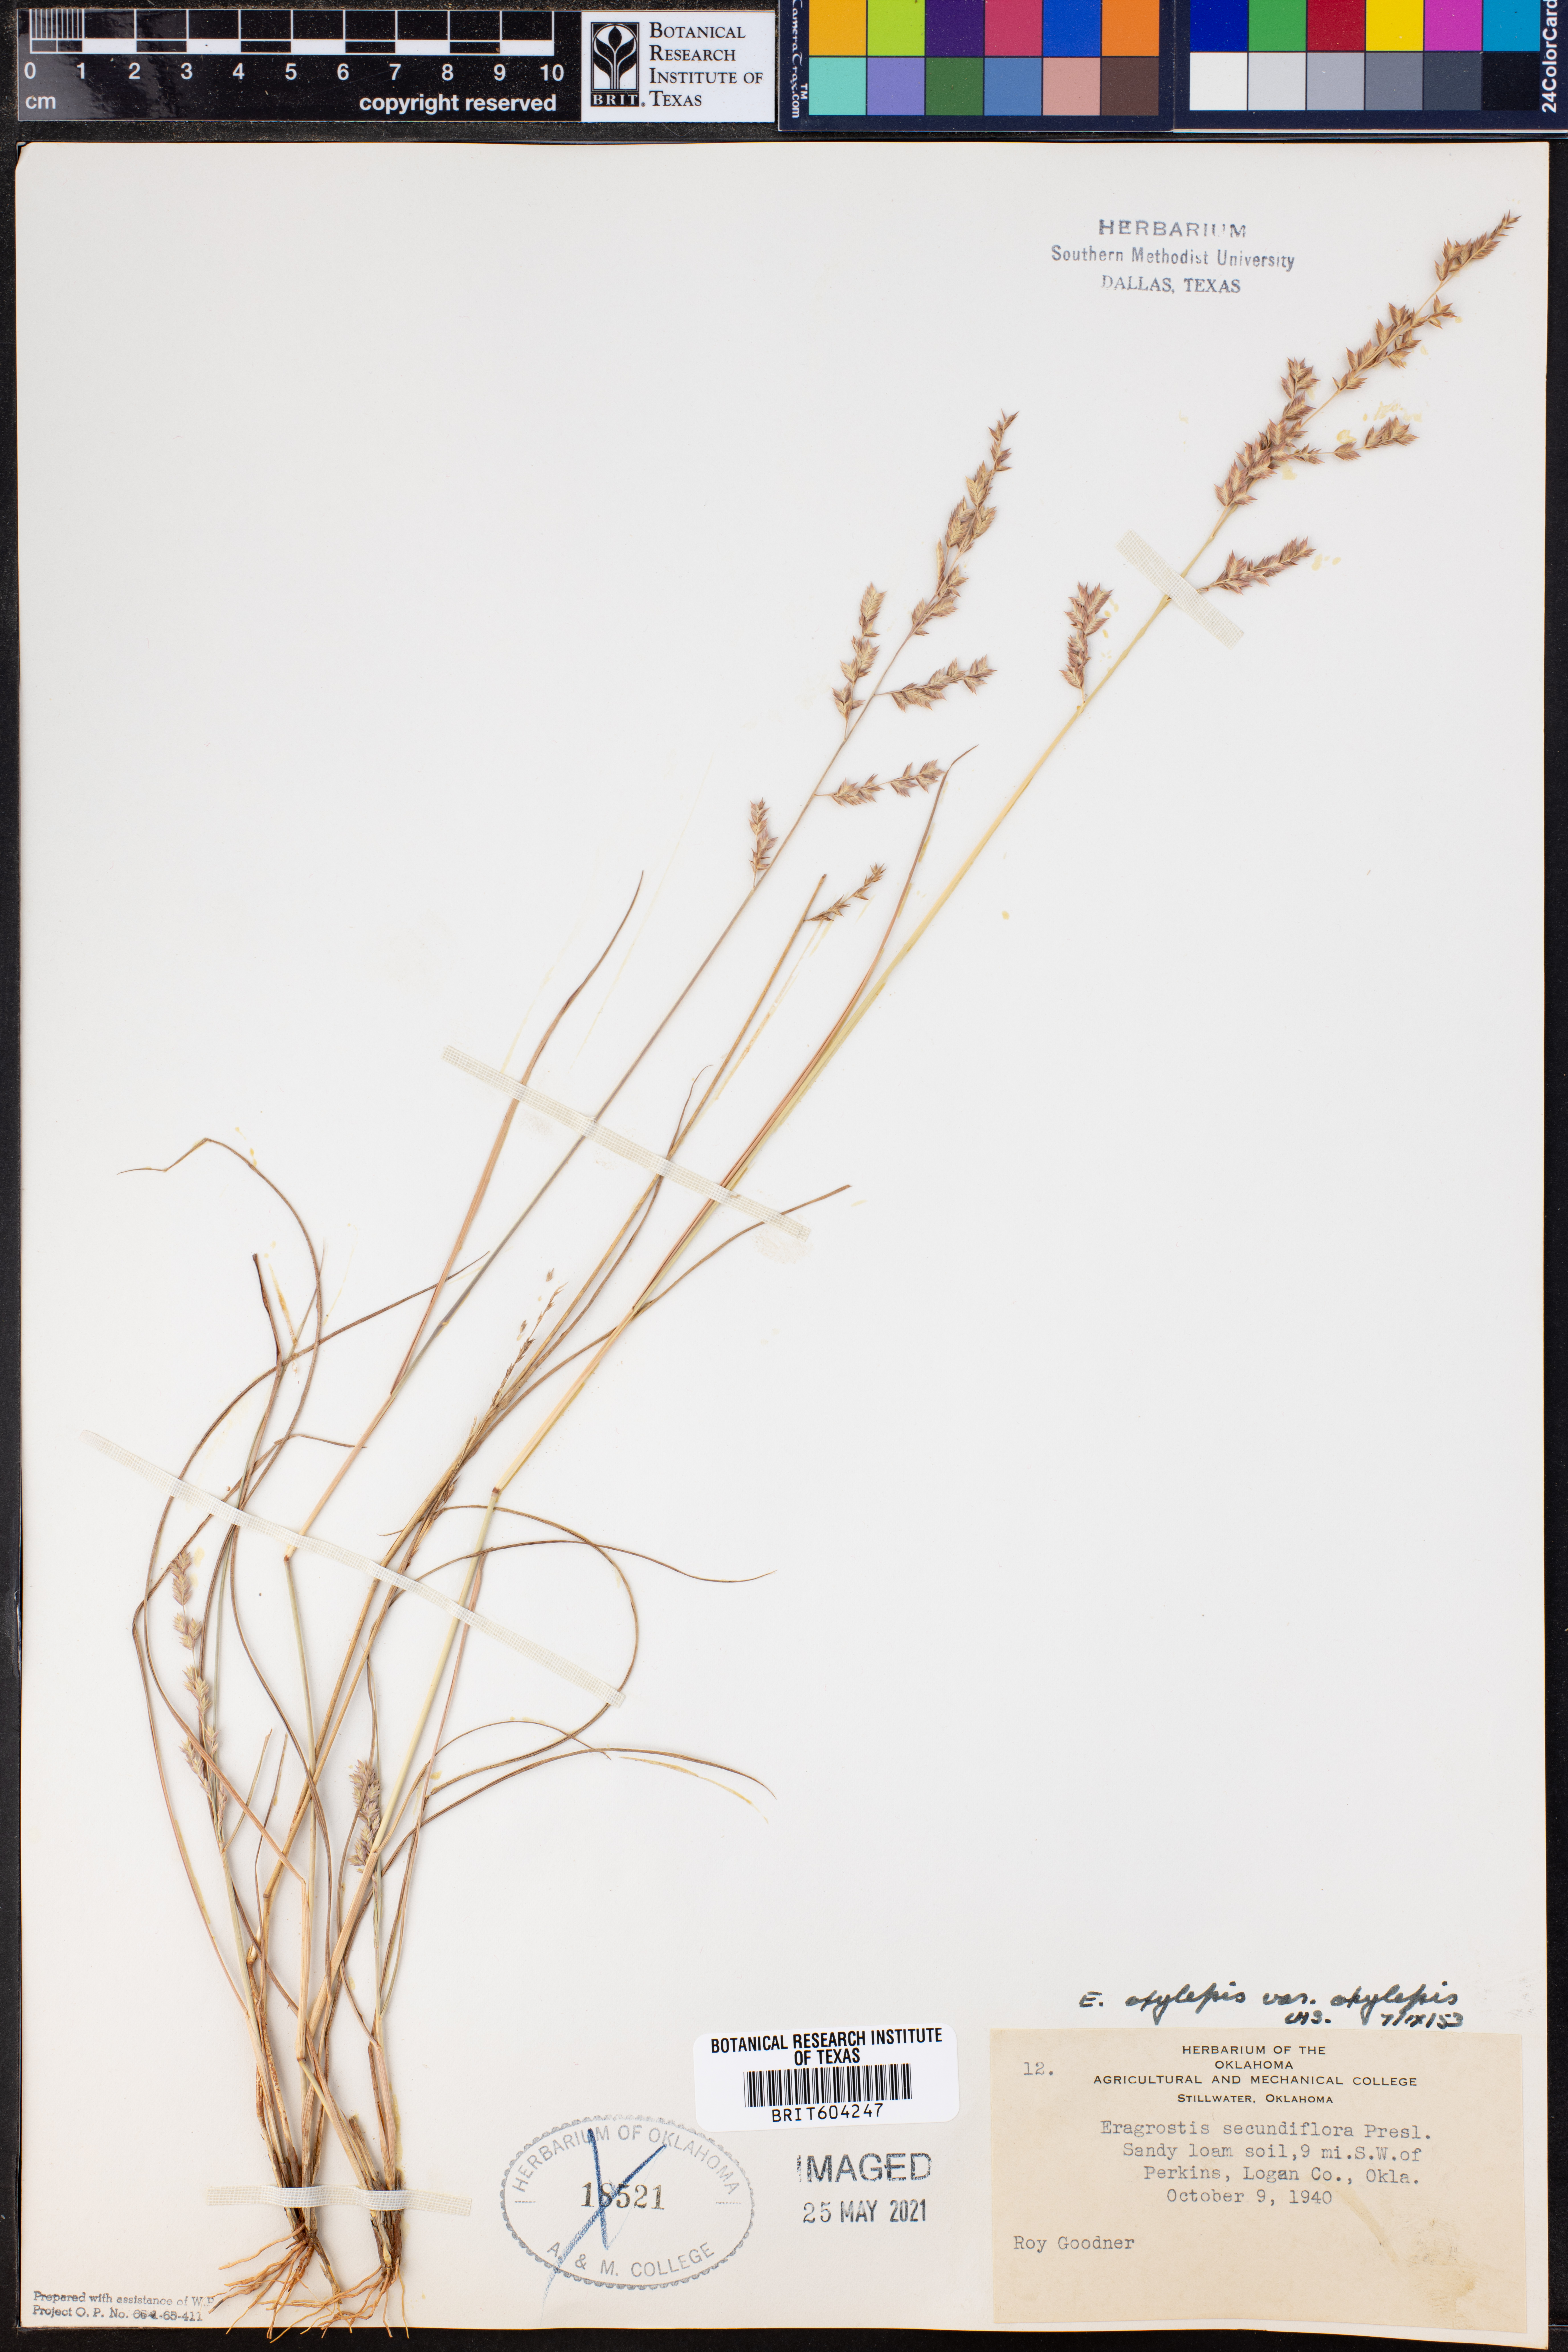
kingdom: Plantae
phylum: Tracheophyta
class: Liliopsida
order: Poales
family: Poaceae
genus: Eragrostis
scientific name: Eragrostis secundiflora
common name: Red love grass
